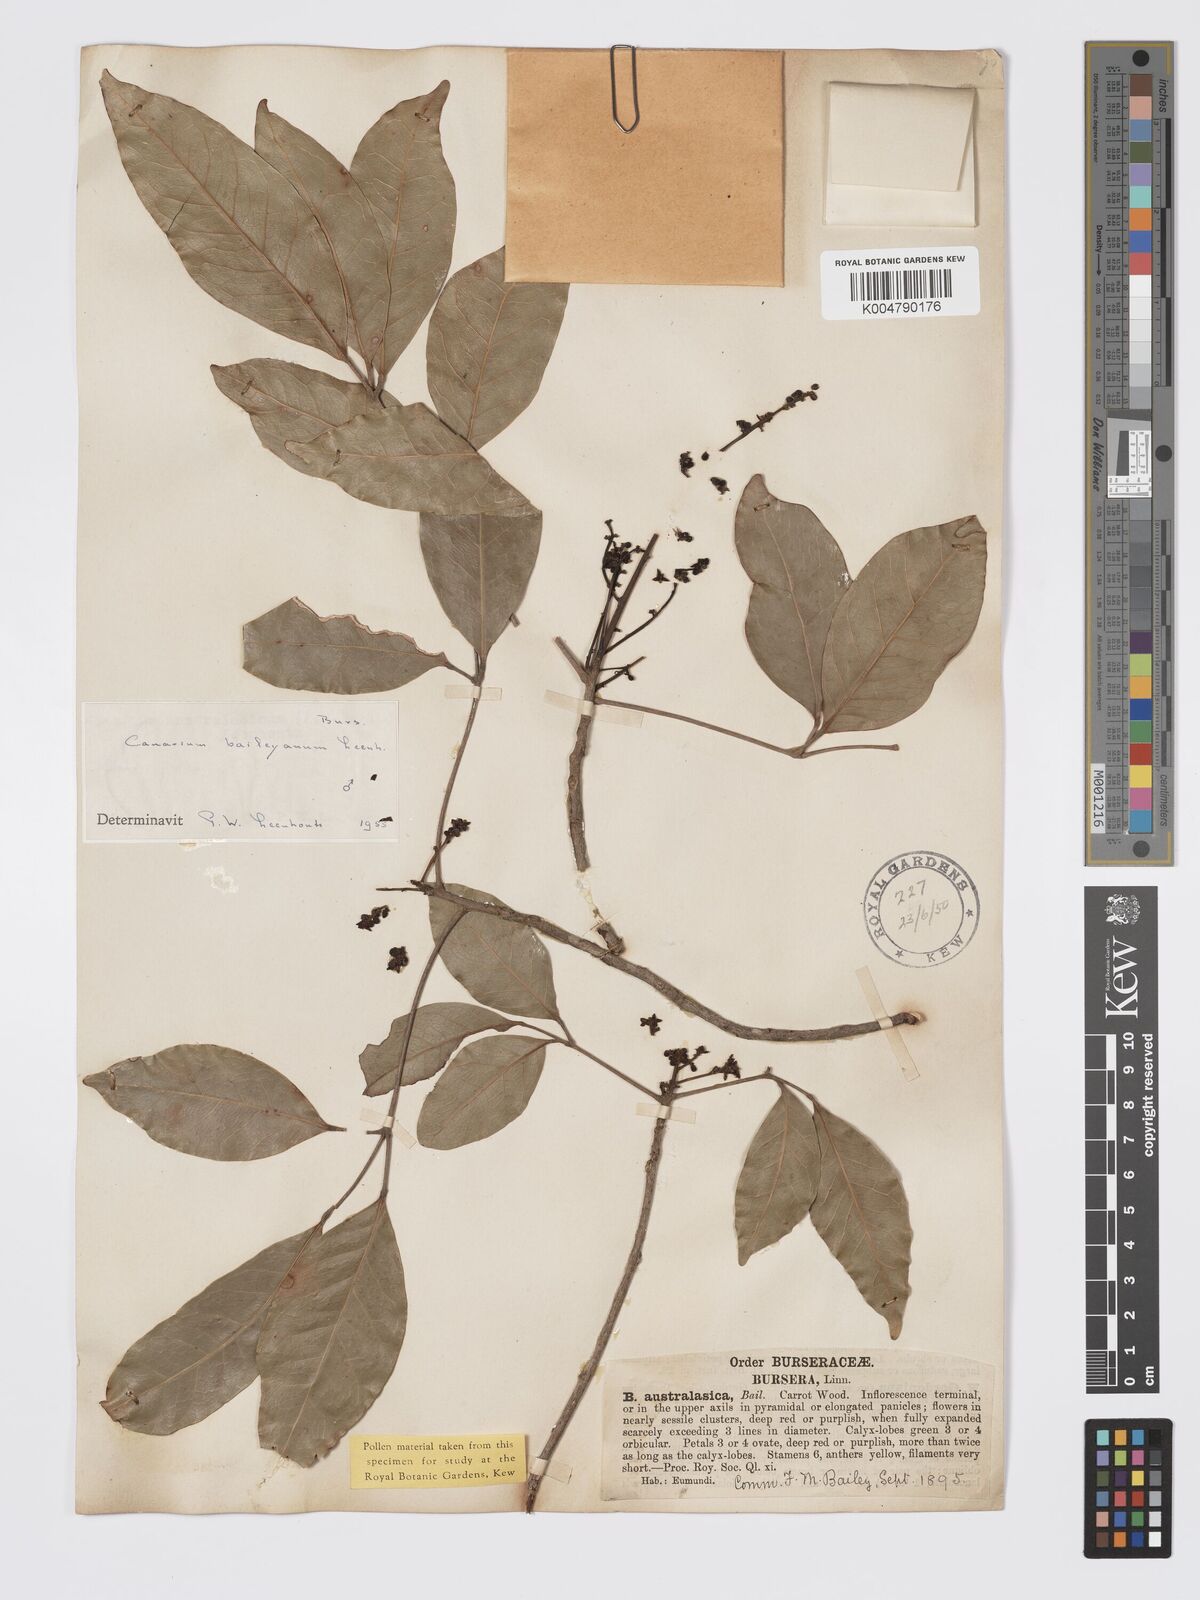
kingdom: Plantae
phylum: Tracheophyta
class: Magnoliopsida
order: Sapindales
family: Burseraceae
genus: Canarium
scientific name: Canarium australasicum
